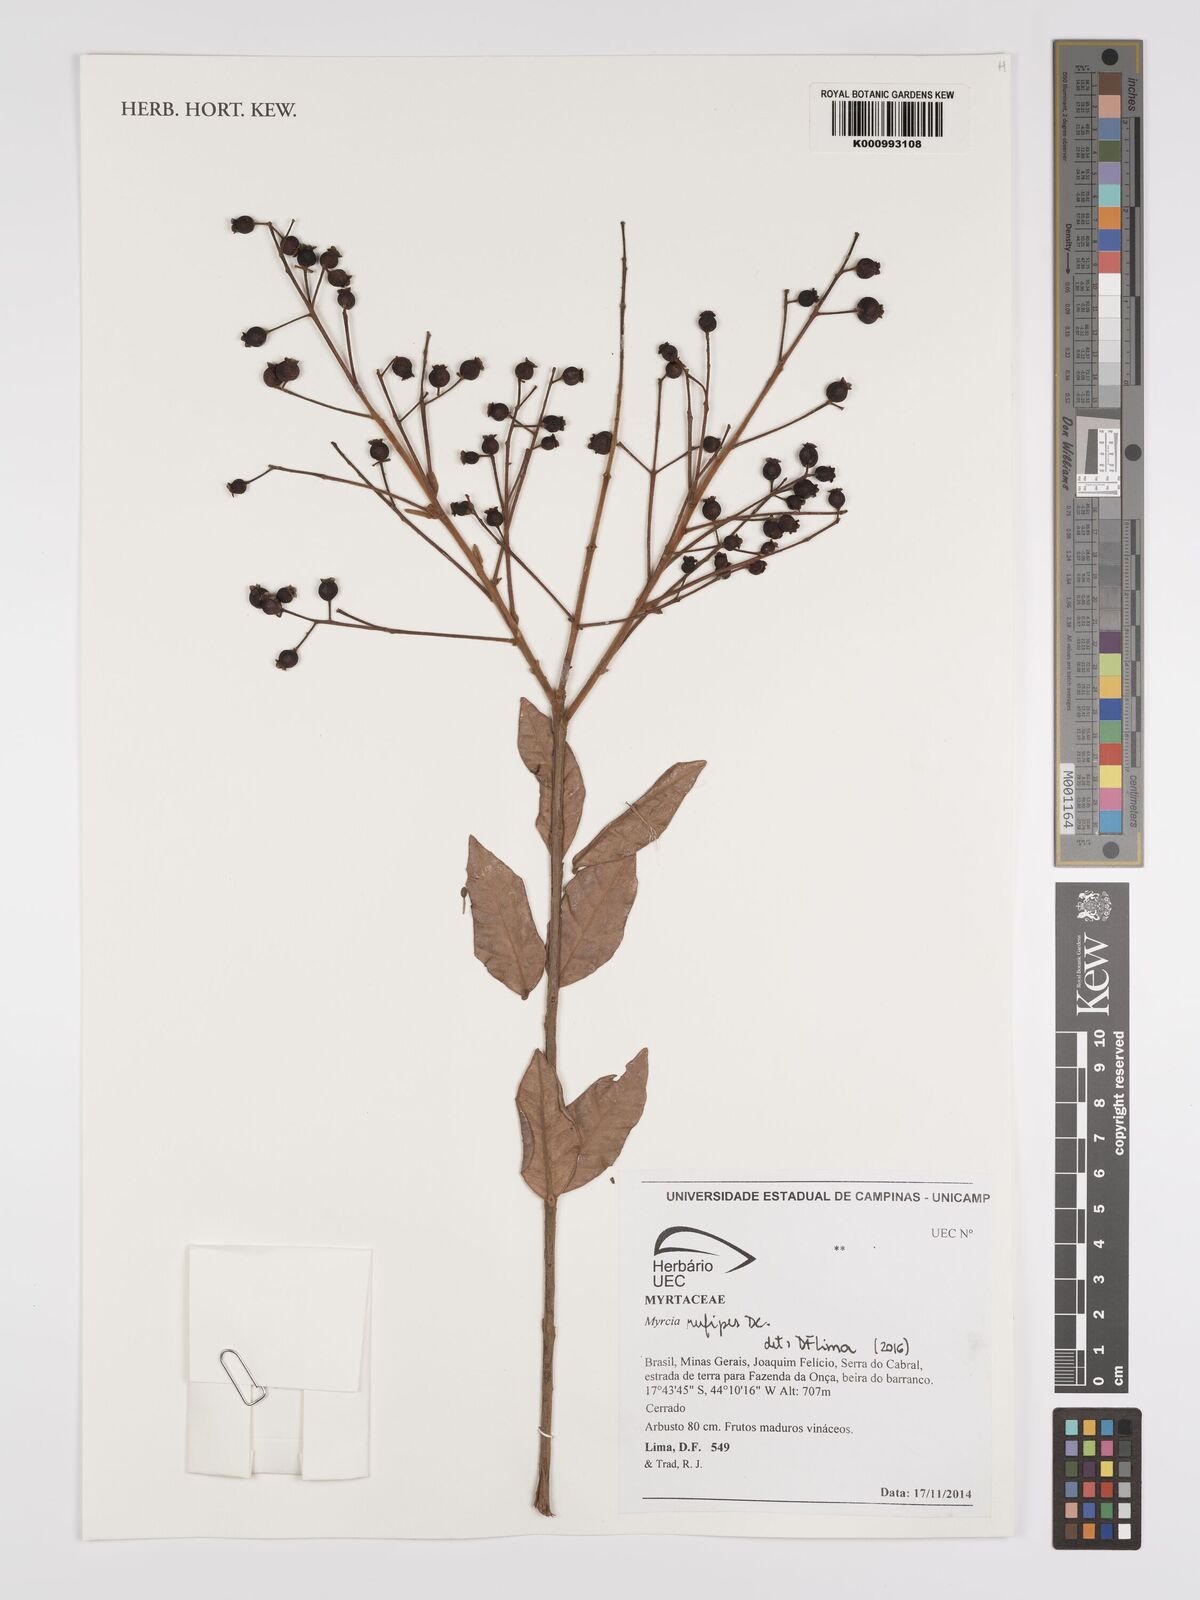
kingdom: Plantae
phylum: Tracheophyta
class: Magnoliopsida
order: Myrtales
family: Myrtaceae
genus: Myrcia
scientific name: Myrcia rufipes
